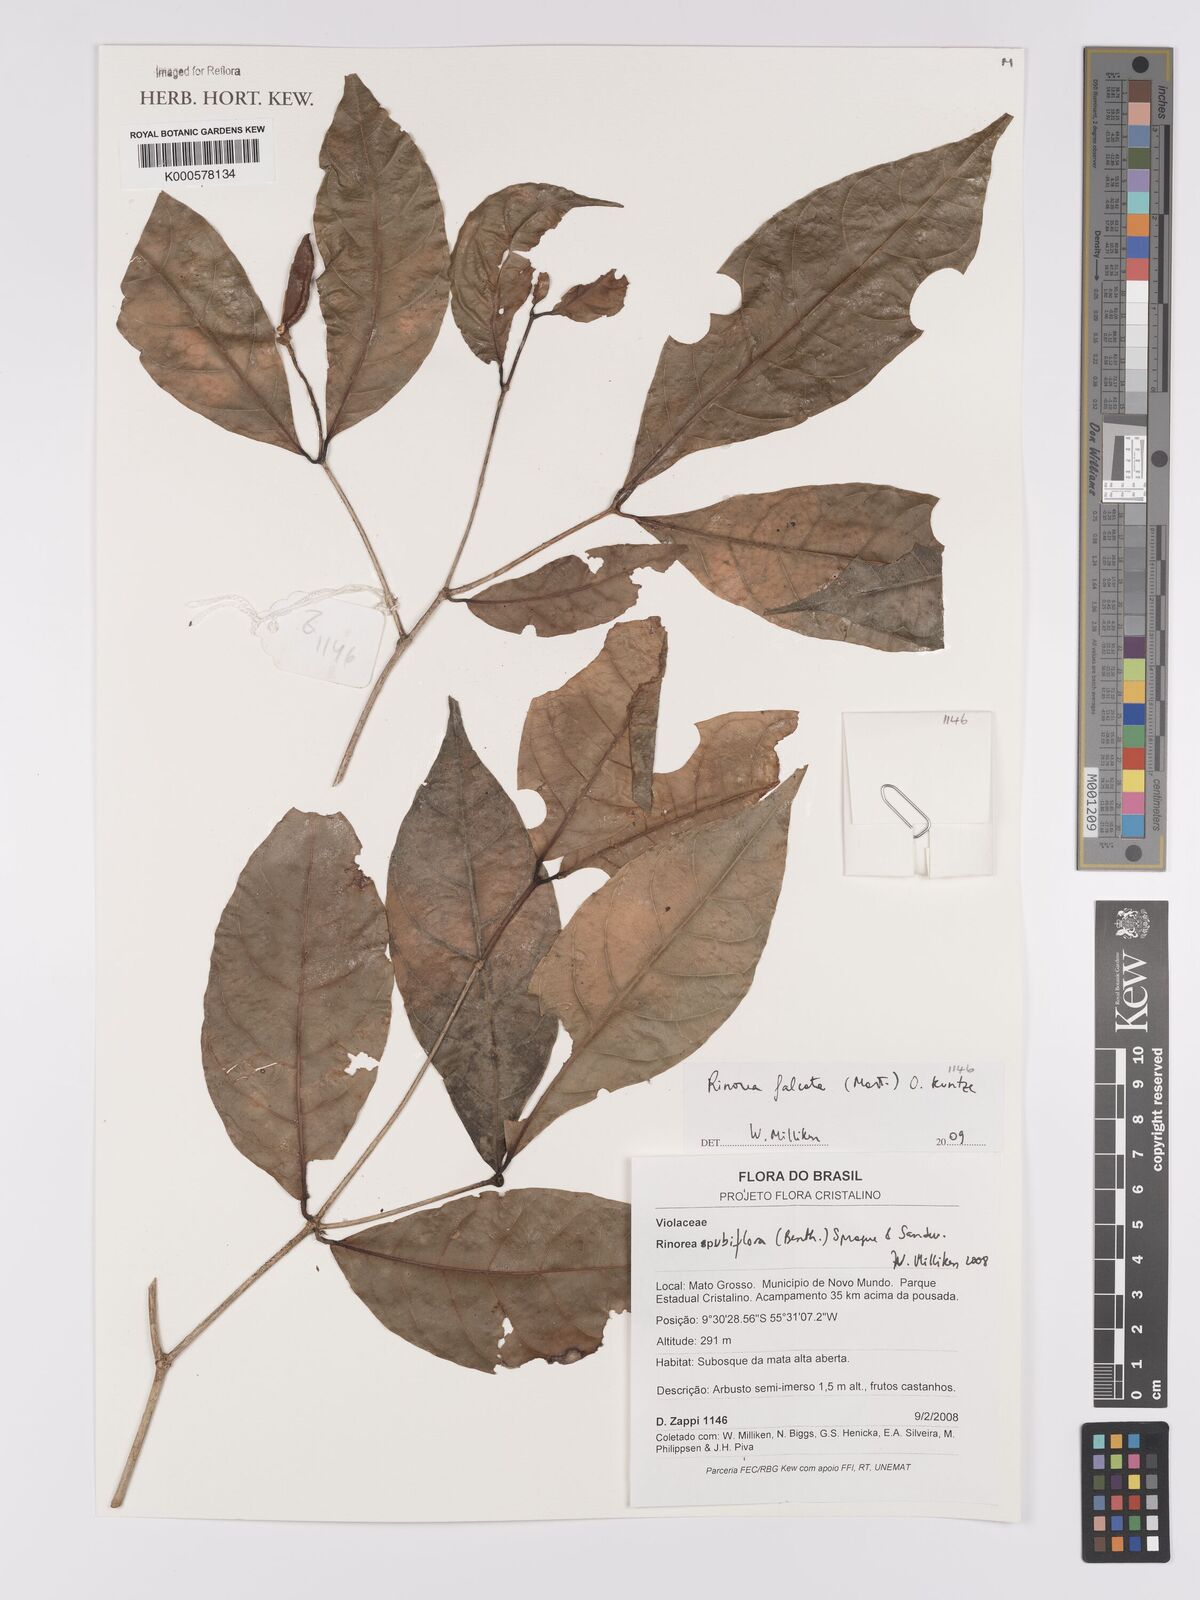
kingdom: Plantae
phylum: Tracheophyta
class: Magnoliopsida
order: Malpighiales
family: Violaceae
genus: Rinorea
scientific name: Rinorea falcata
